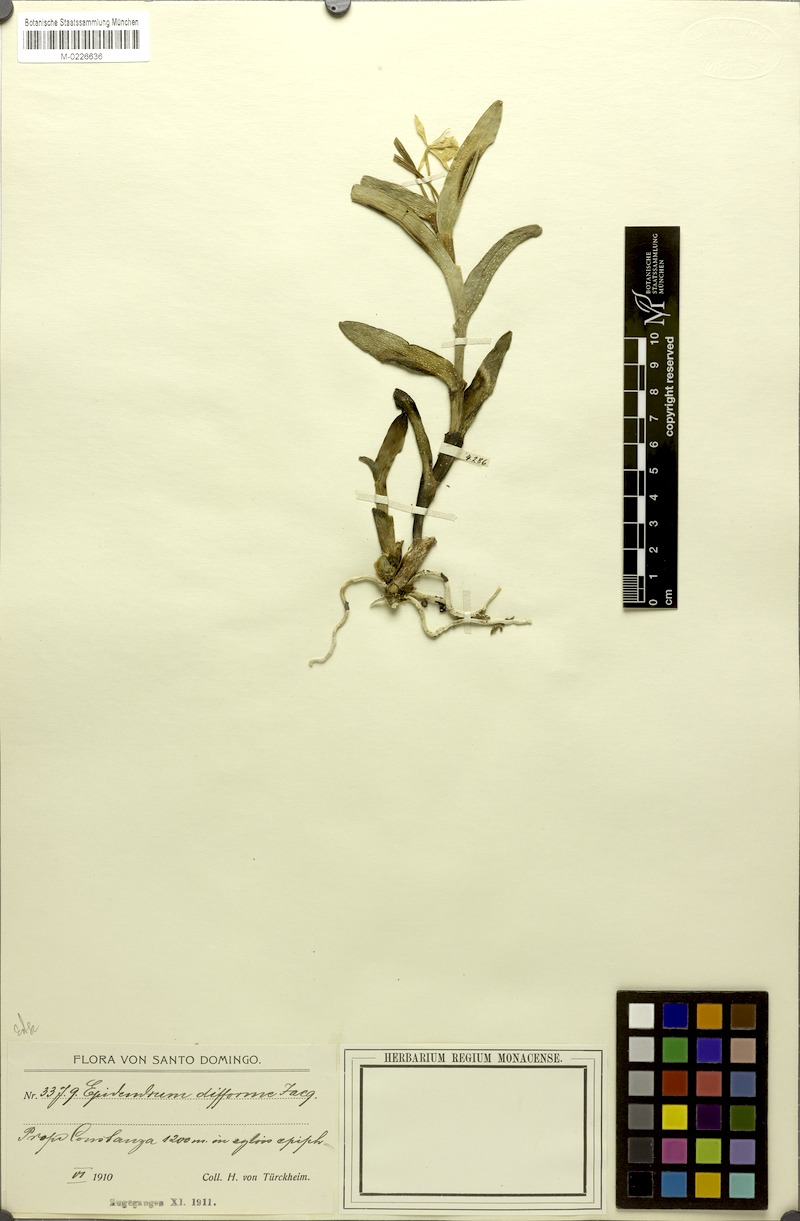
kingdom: Plantae
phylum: Tracheophyta
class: Liliopsida
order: Asparagales
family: Orchidaceae
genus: Epidendrum
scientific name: Epidendrum crenulidifforme
